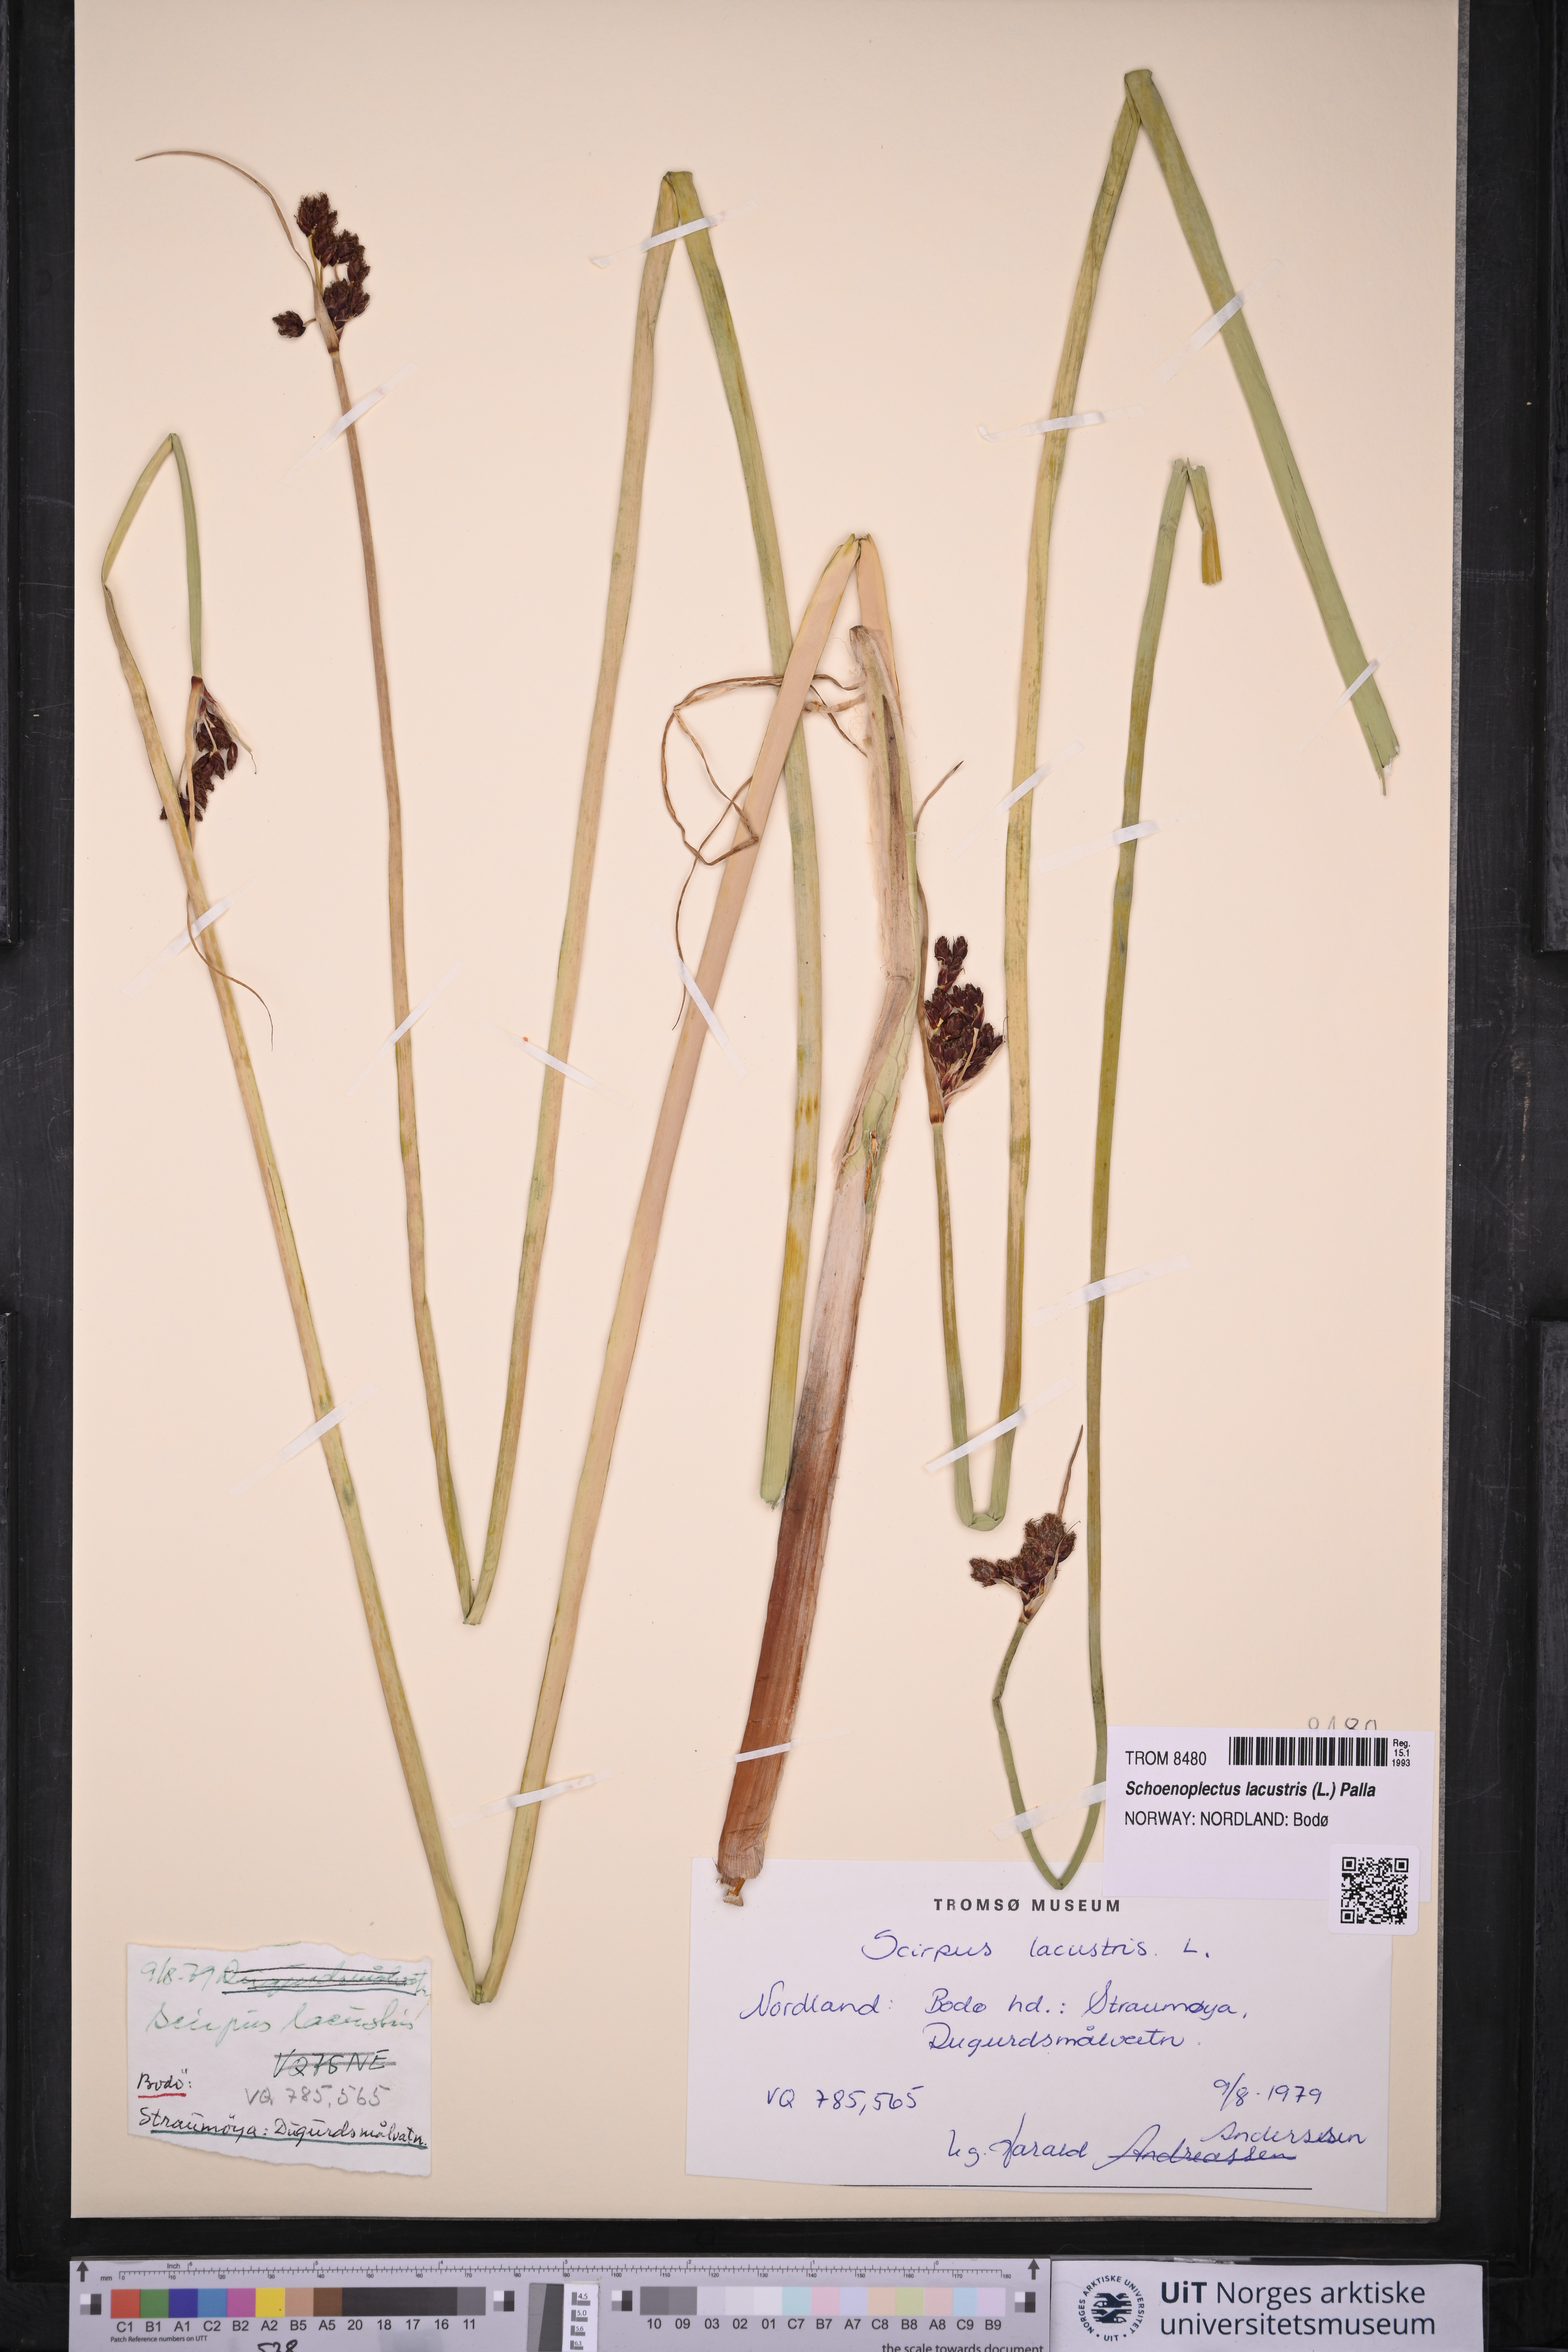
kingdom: Plantae
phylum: Tracheophyta
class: Liliopsida
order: Poales
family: Cyperaceae
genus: Schoenoplectus
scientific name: Schoenoplectus lacustris
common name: Common club-rush
